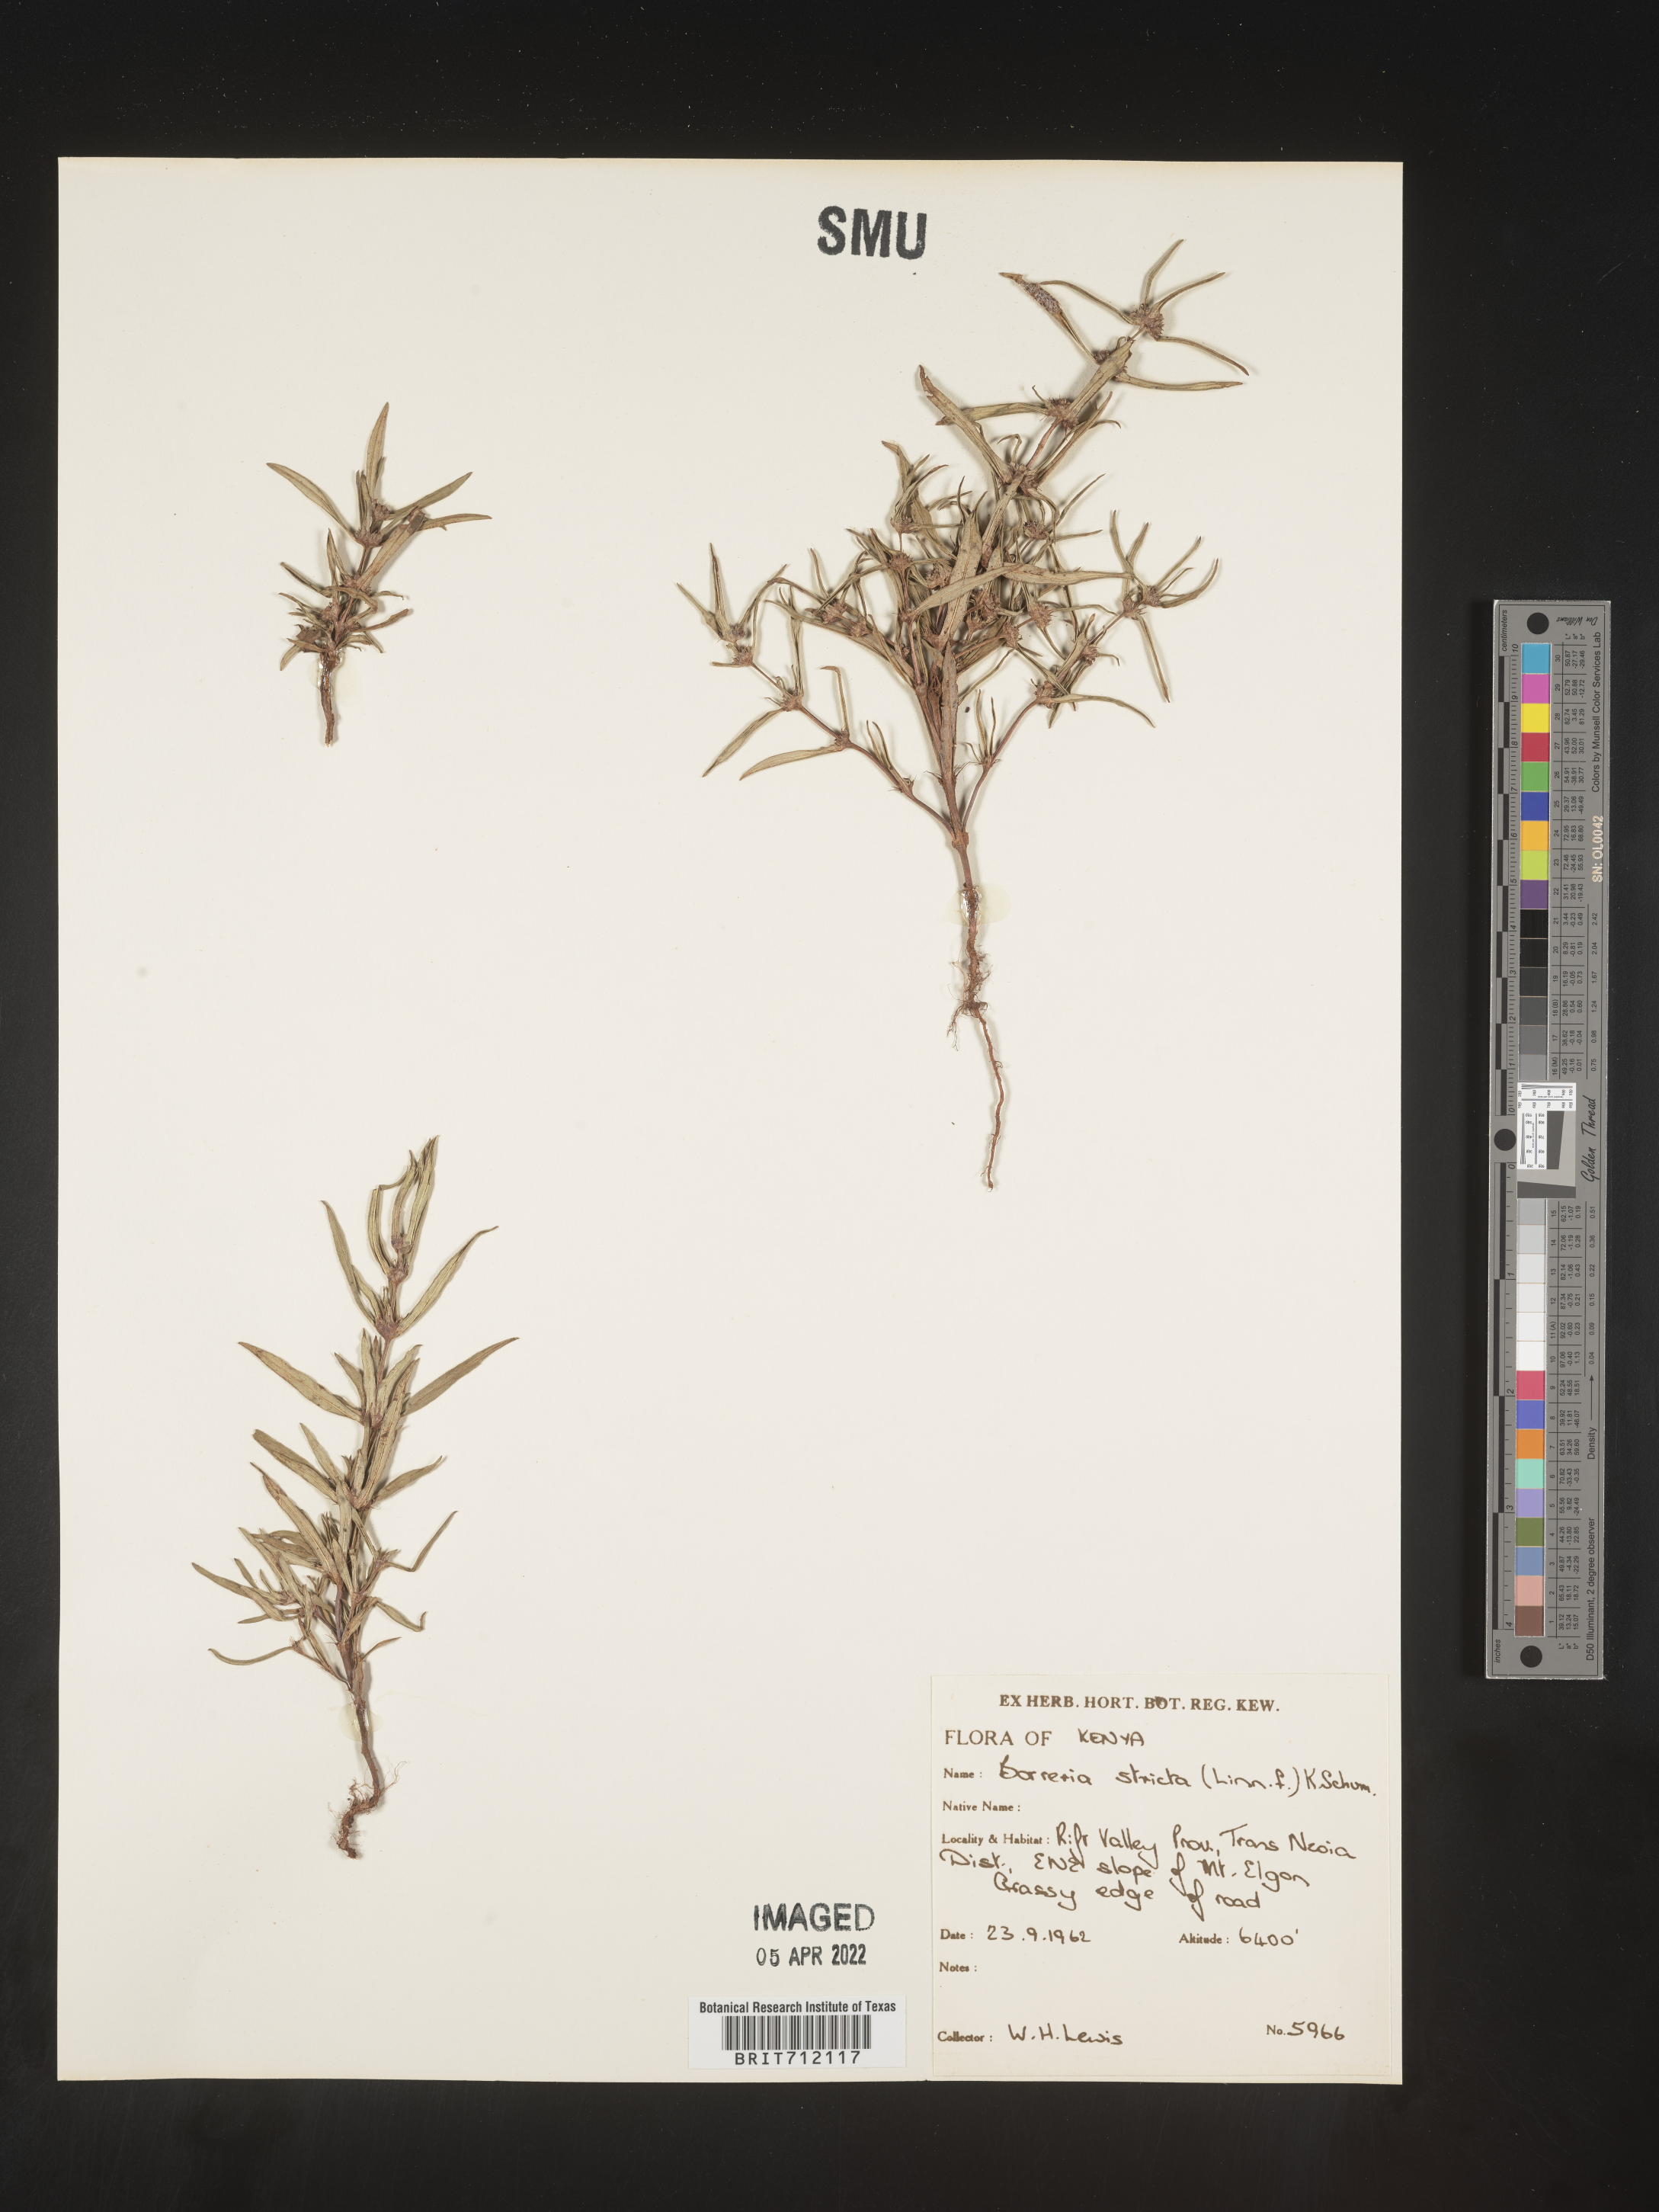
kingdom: Plantae
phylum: Tracheophyta
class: Magnoliopsida
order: Gentianales
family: Rubiaceae
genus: Spermacoce
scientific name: Spermacoce
